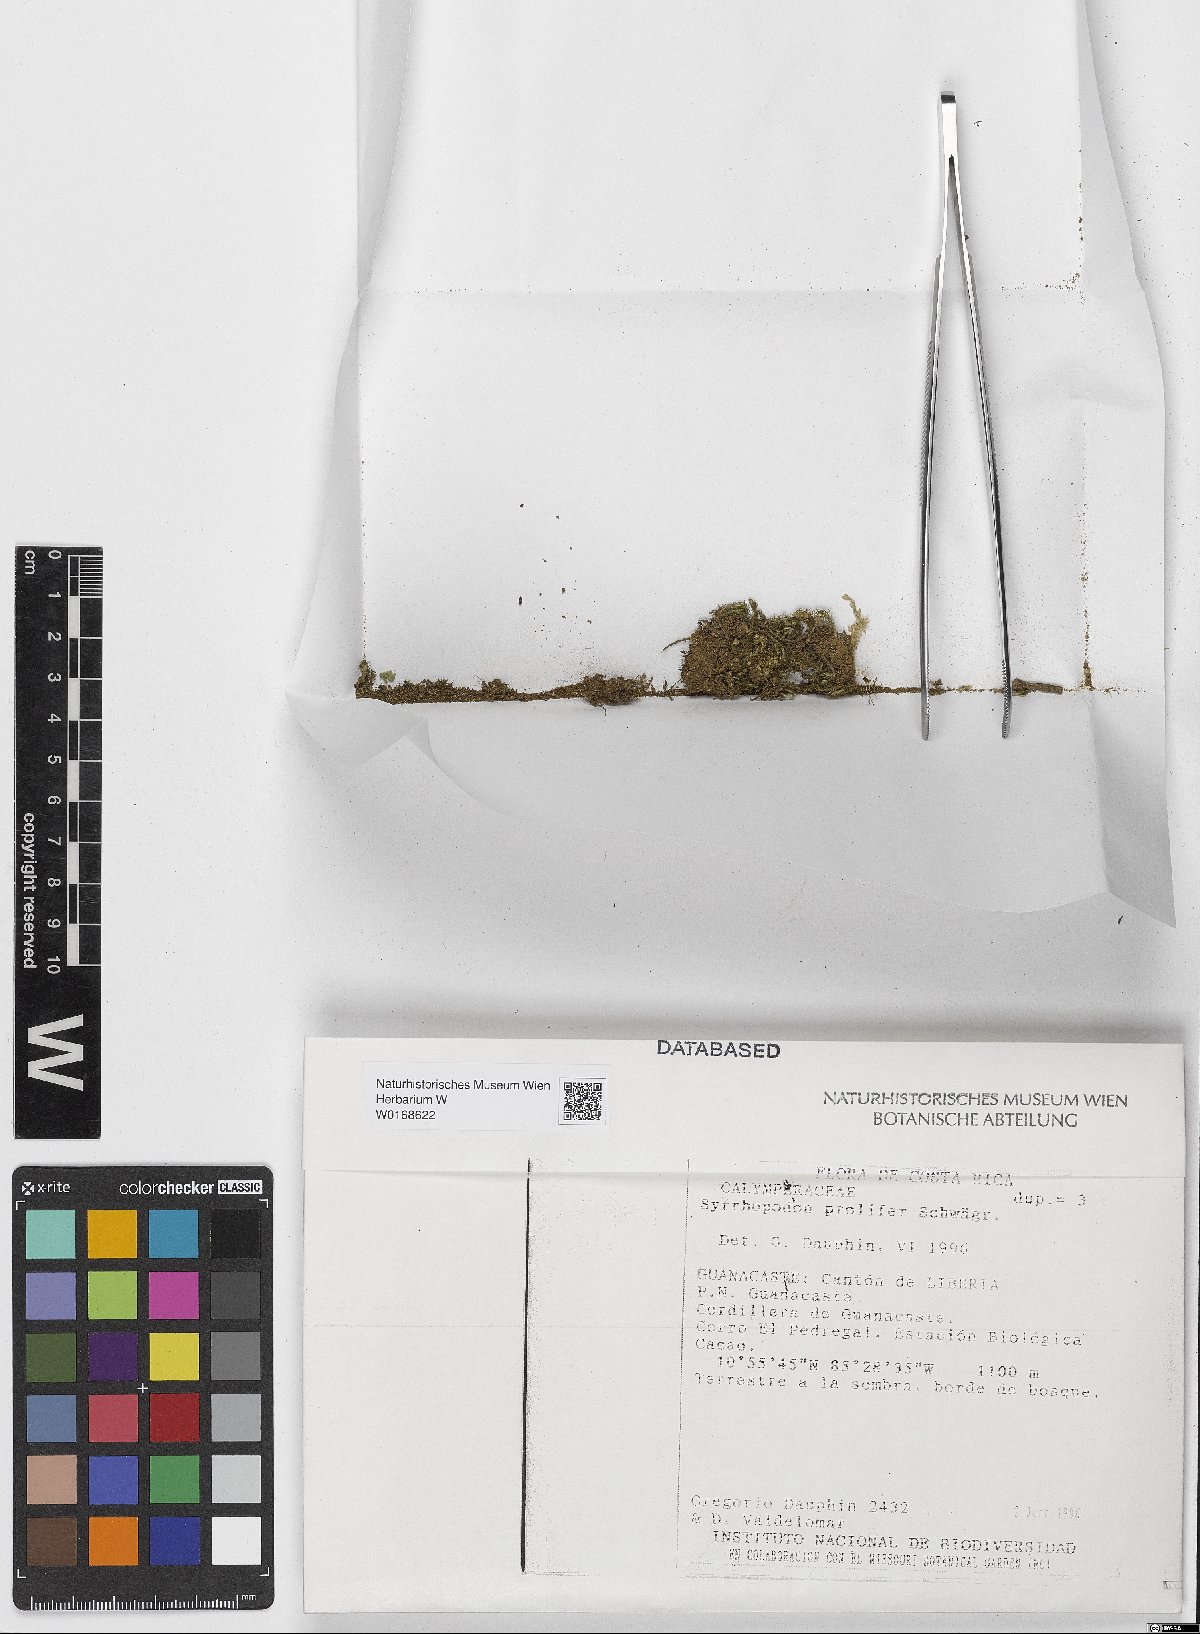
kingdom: Plantae
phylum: Bryophyta
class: Bryopsida
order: Dicranales
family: Calymperaceae
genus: Syrrhopodon
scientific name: Syrrhopodon prolifer
